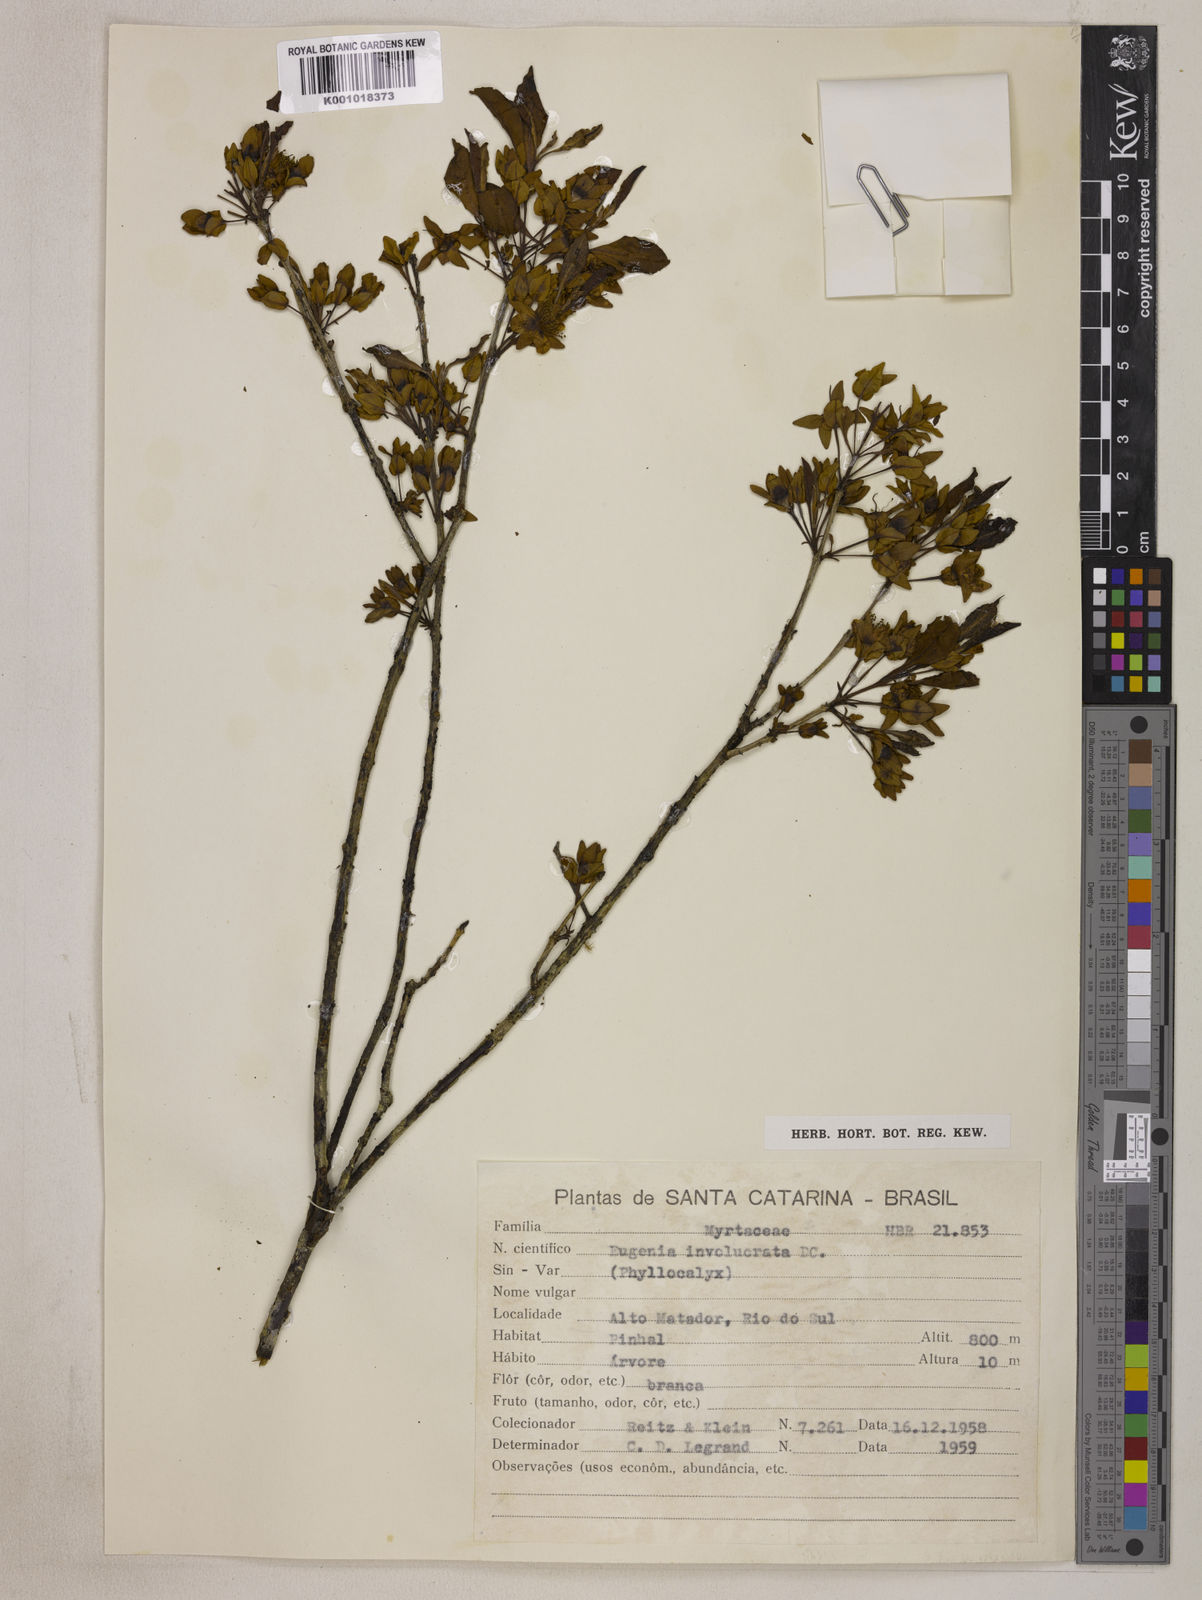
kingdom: Plantae
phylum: Tracheophyta
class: Magnoliopsida
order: Myrtales
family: Myrtaceae
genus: Eugenia
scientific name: Eugenia involucrata
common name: Cherry-of-the-rio grande
